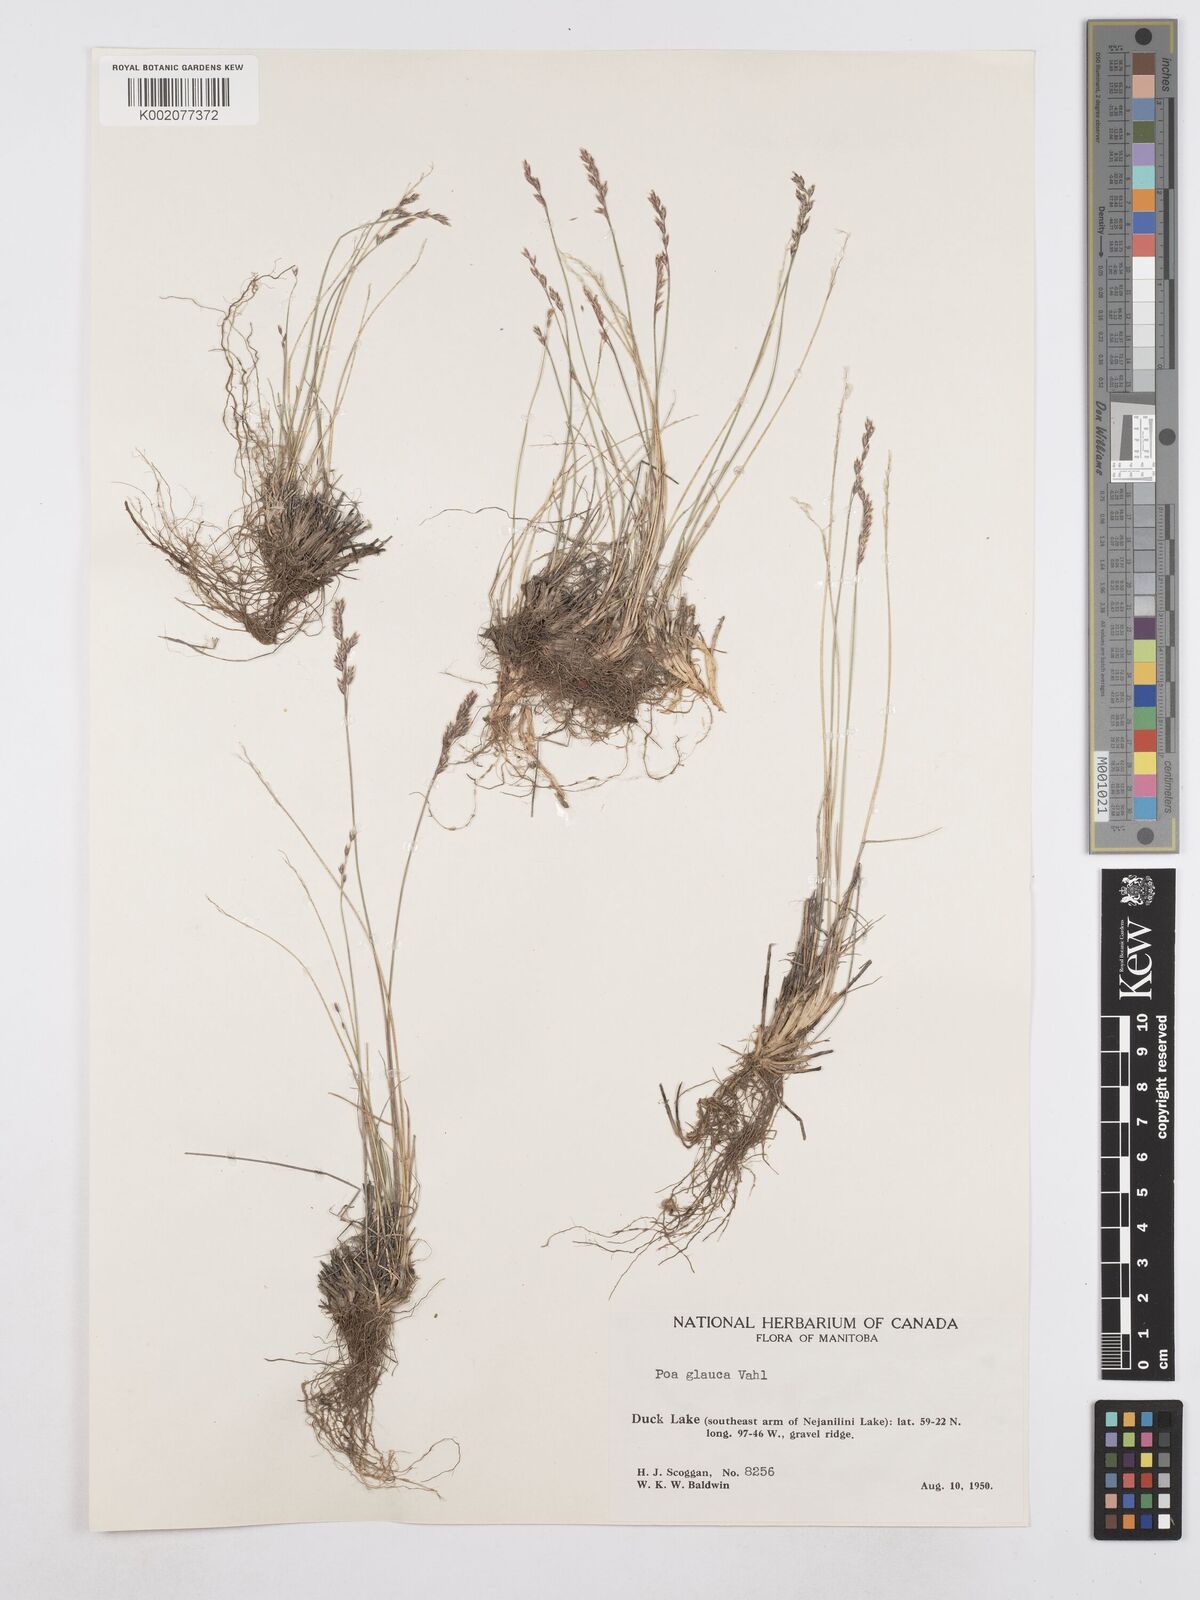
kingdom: Plantae
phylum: Tracheophyta
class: Liliopsida
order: Poales
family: Poaceae
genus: Poa
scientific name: Poa glauca
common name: Glaucous bluegrass
